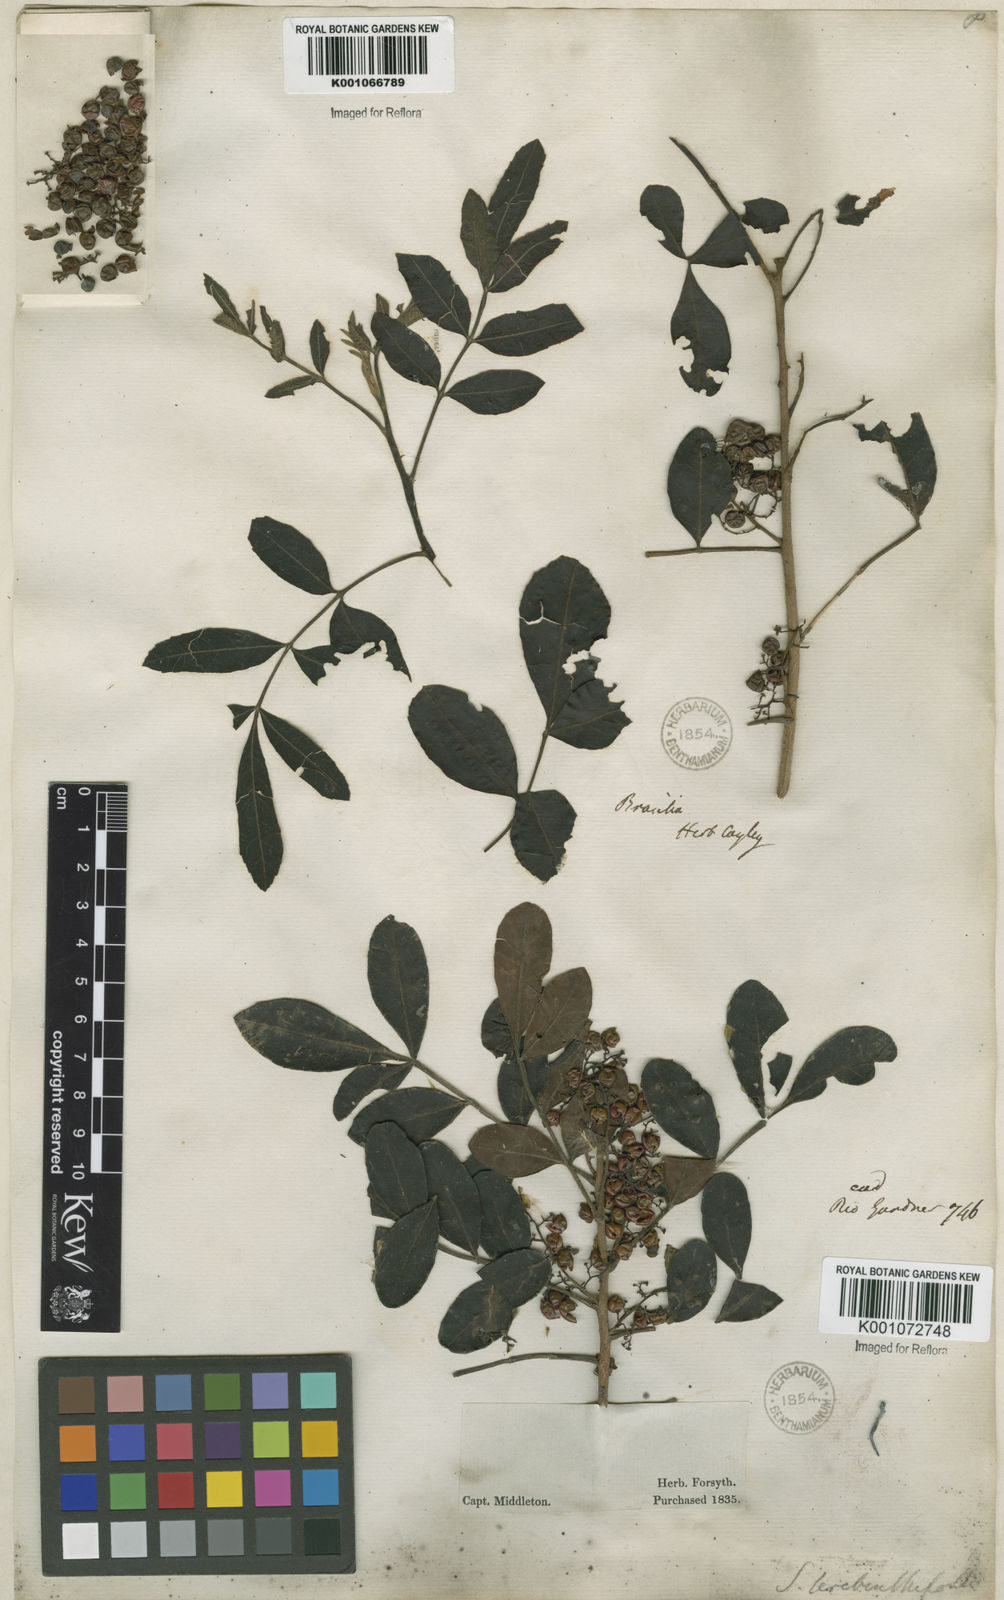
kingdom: Plantae
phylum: Tracheophyta
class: Magnoliopsida
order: Sapindales
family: Anacardiaceae
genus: Schinus
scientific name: Schinus terebinthifolia
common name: Brazilian peppertree
